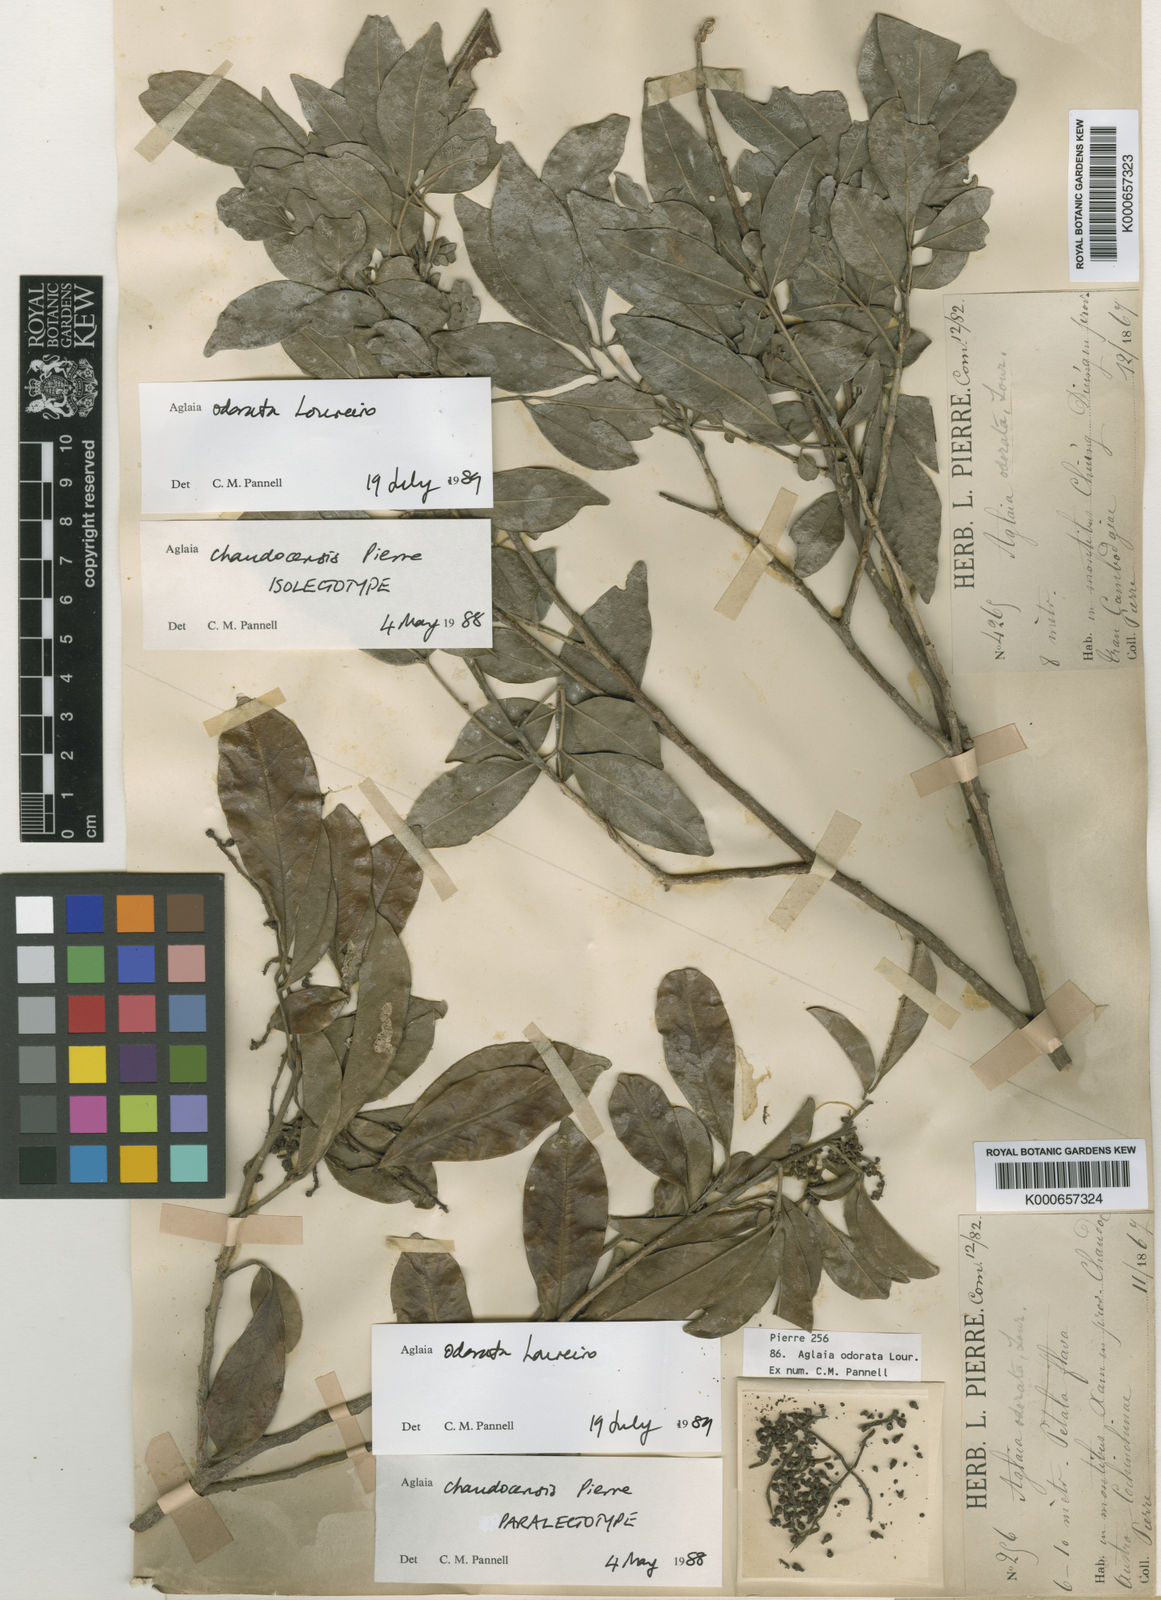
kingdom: Plantae
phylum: Tracheophyta
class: Magnoliopsida
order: Sapindales
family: Meliaceae
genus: Aglaia
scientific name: Aglaia odorata
